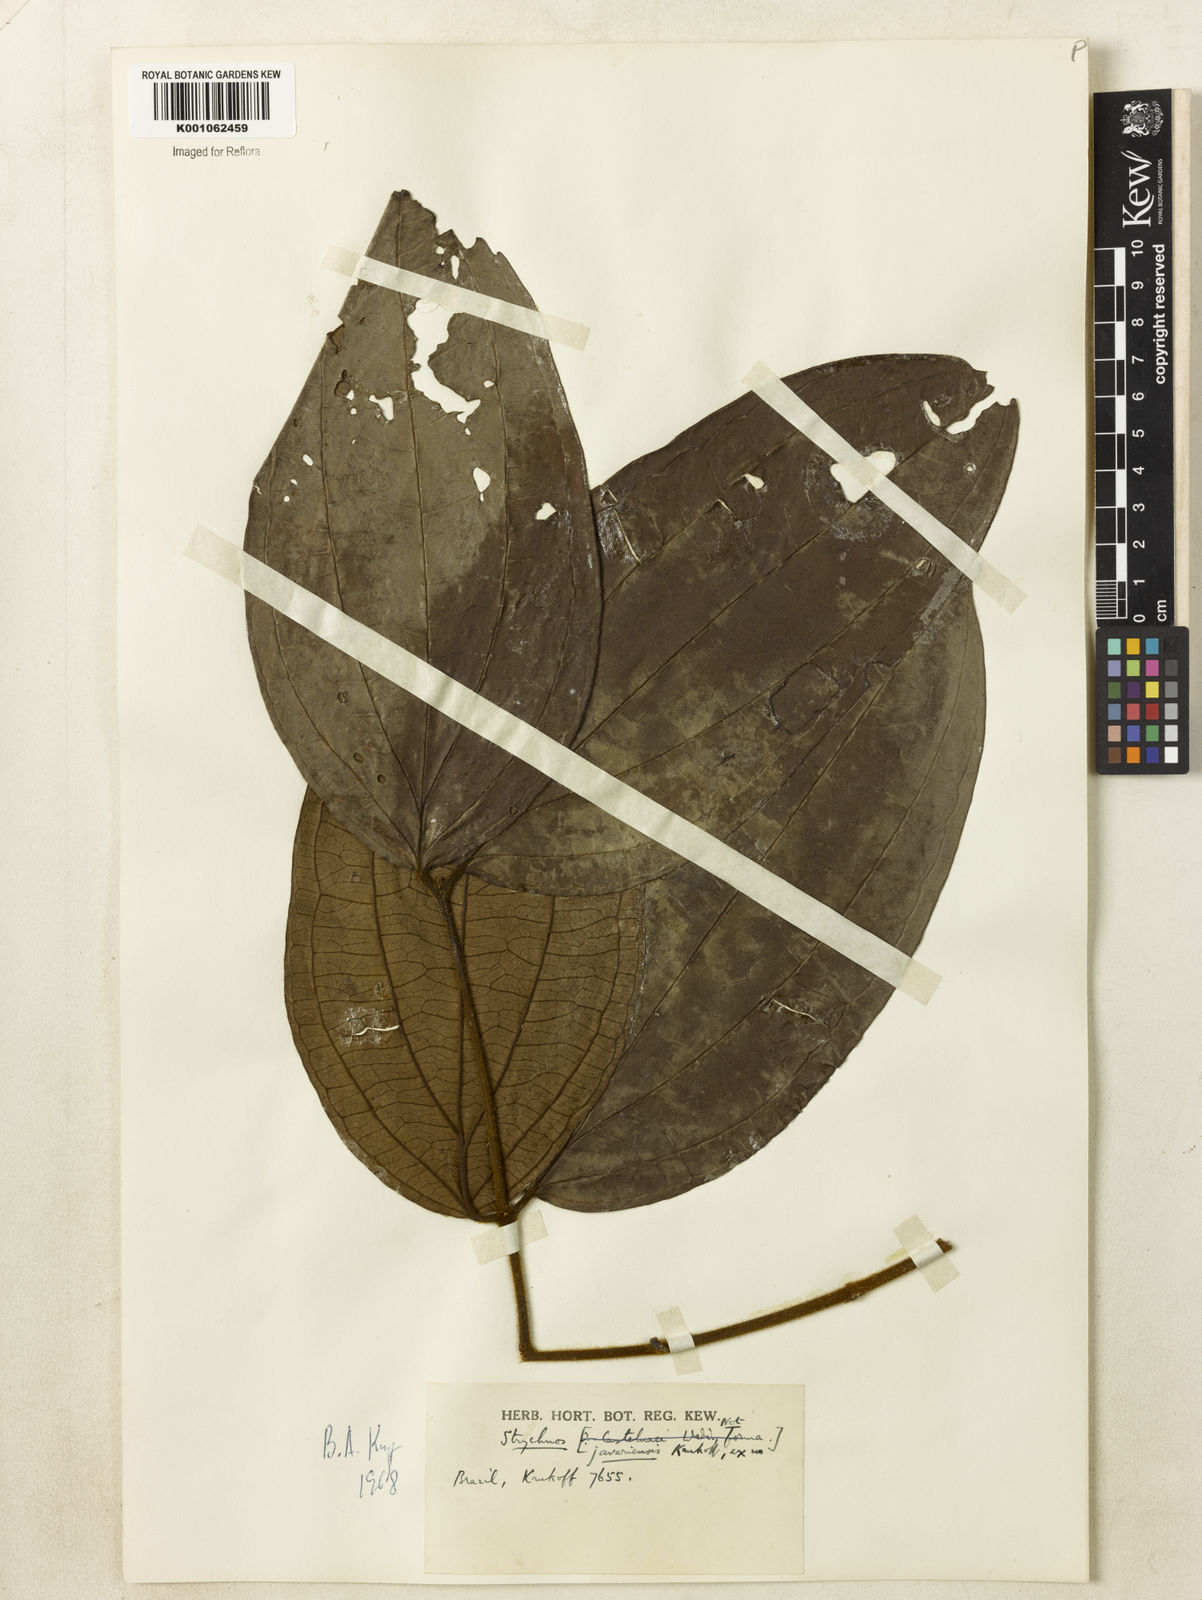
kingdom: Plantae
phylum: Tracheophyta
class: Magnoliopsida
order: Gentianales
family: Loganiaceae
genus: Strychnos
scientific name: Strychnos javariensis
